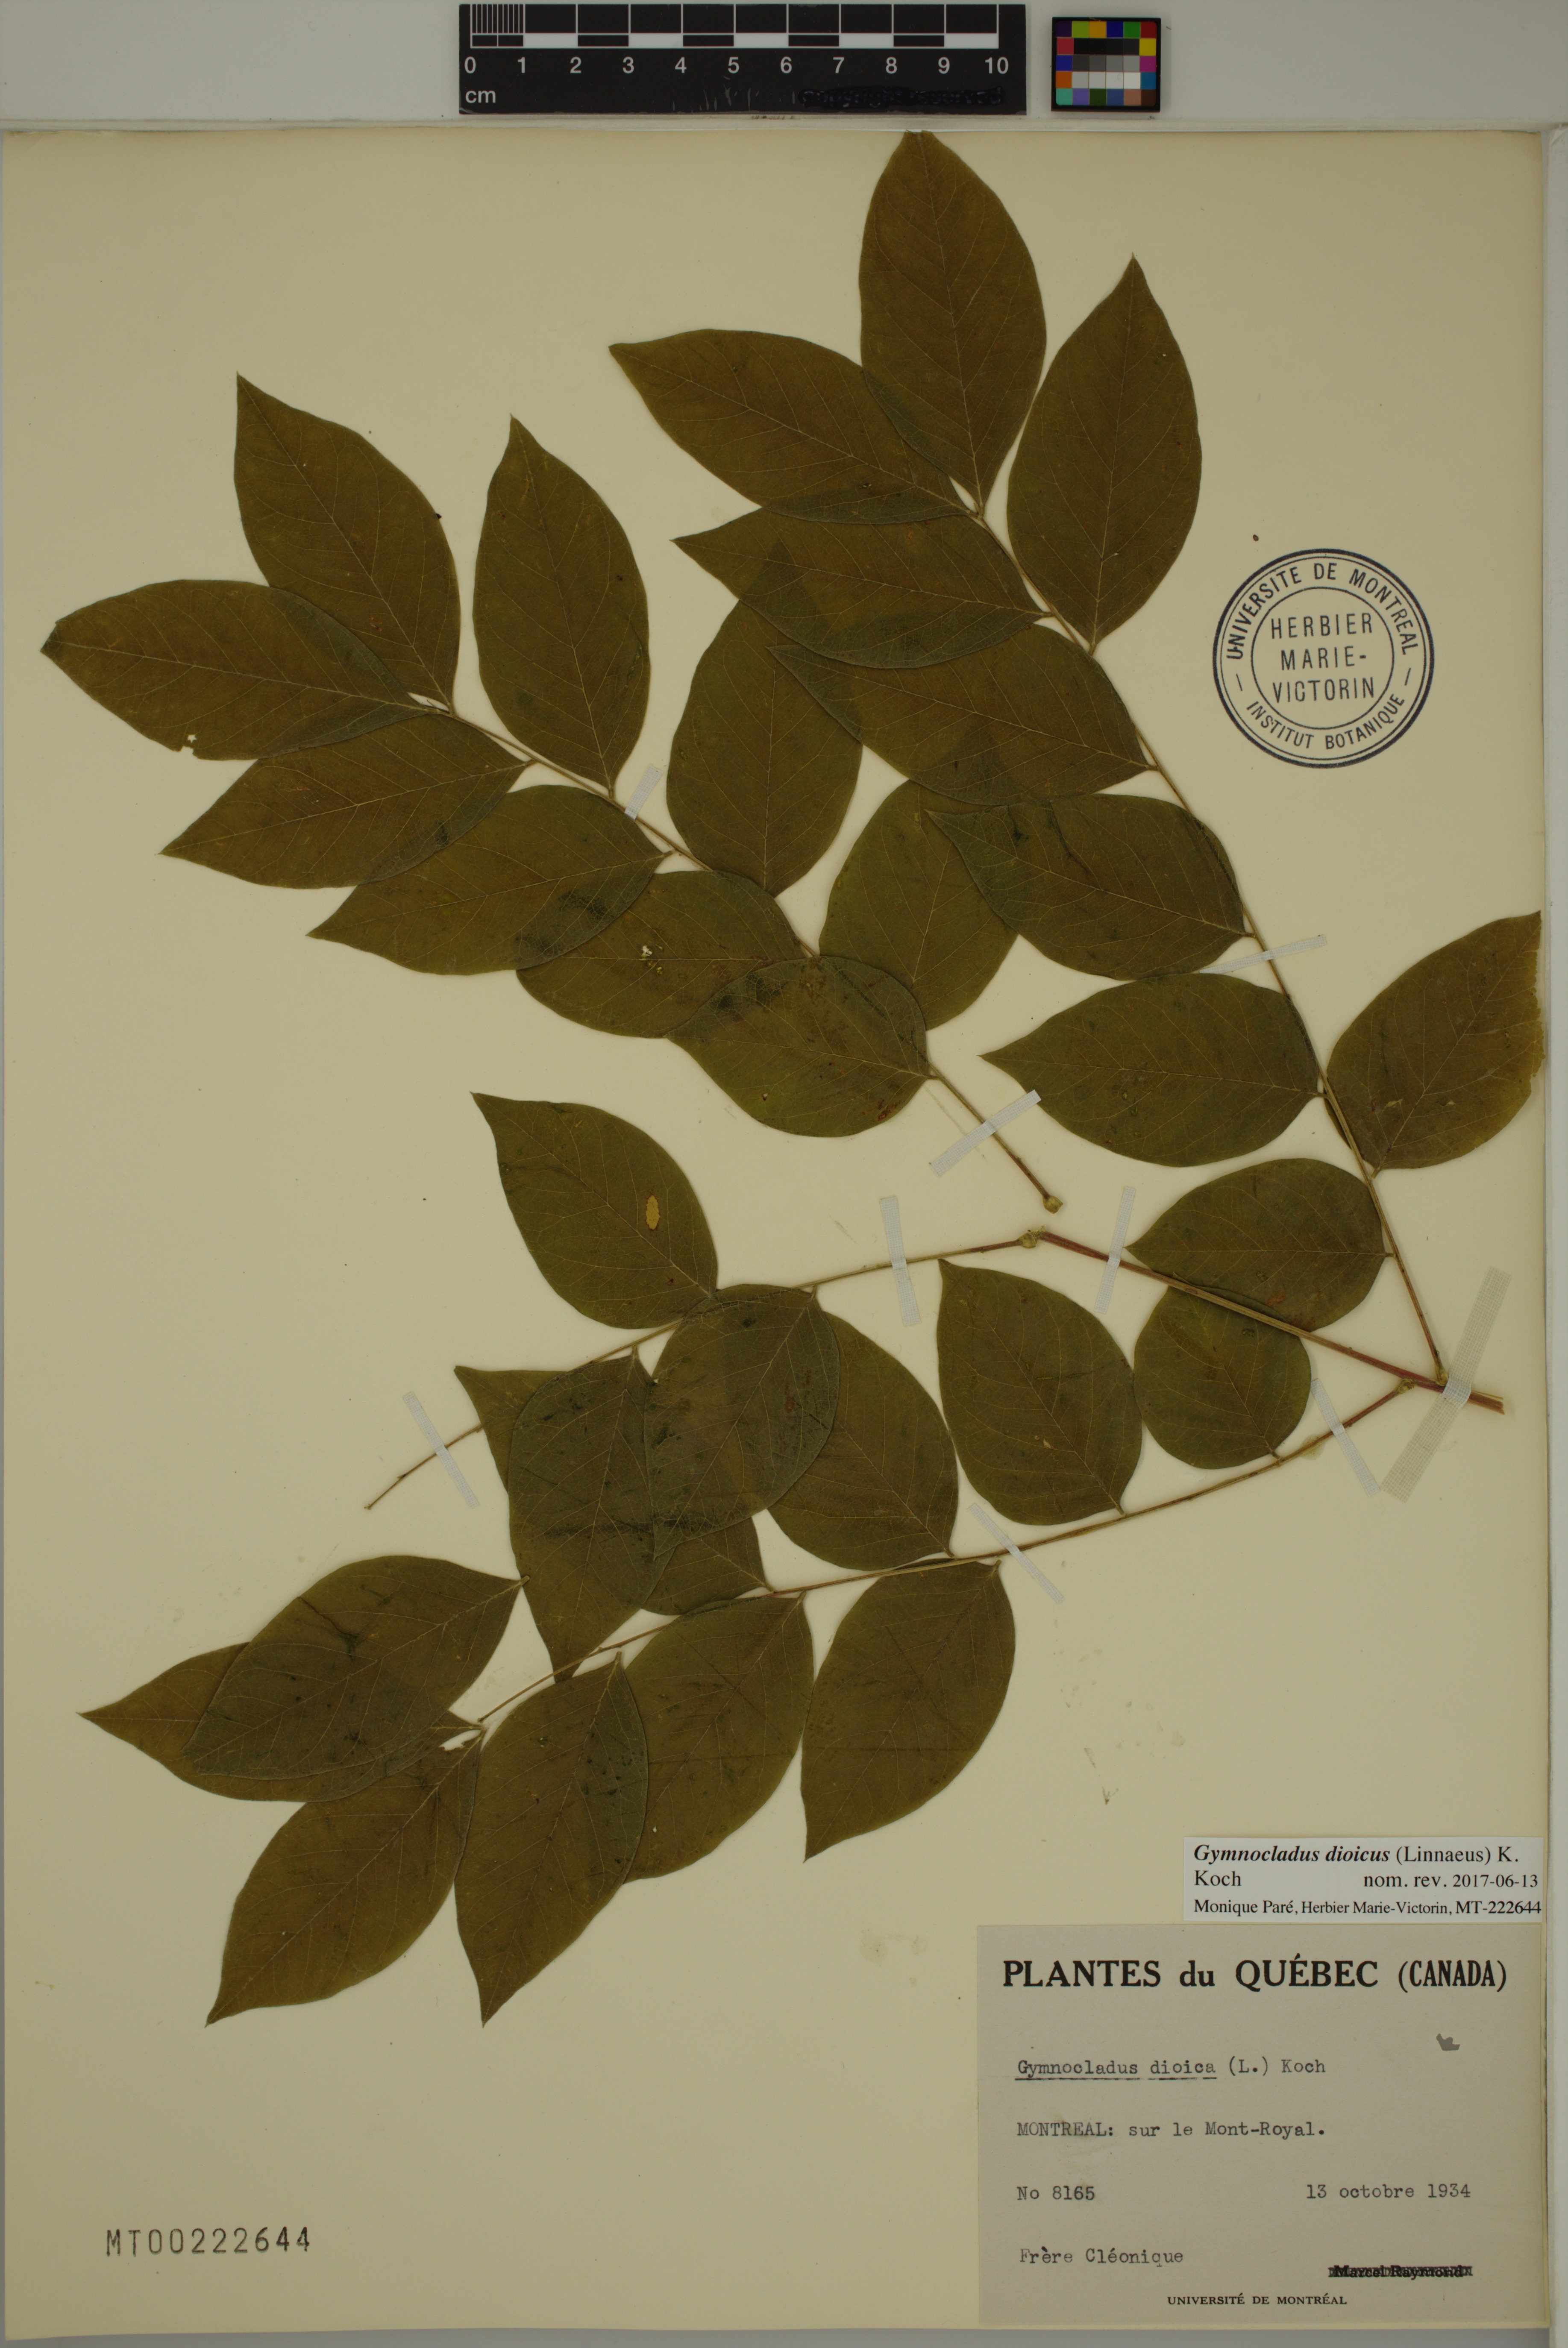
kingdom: Plantae
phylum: Tracheophyta
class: Magnoliopsida
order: Fabales
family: Fabaceae
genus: Gymnocladus
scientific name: Gymnocladus dioicus
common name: Kentucky coffee-tree
